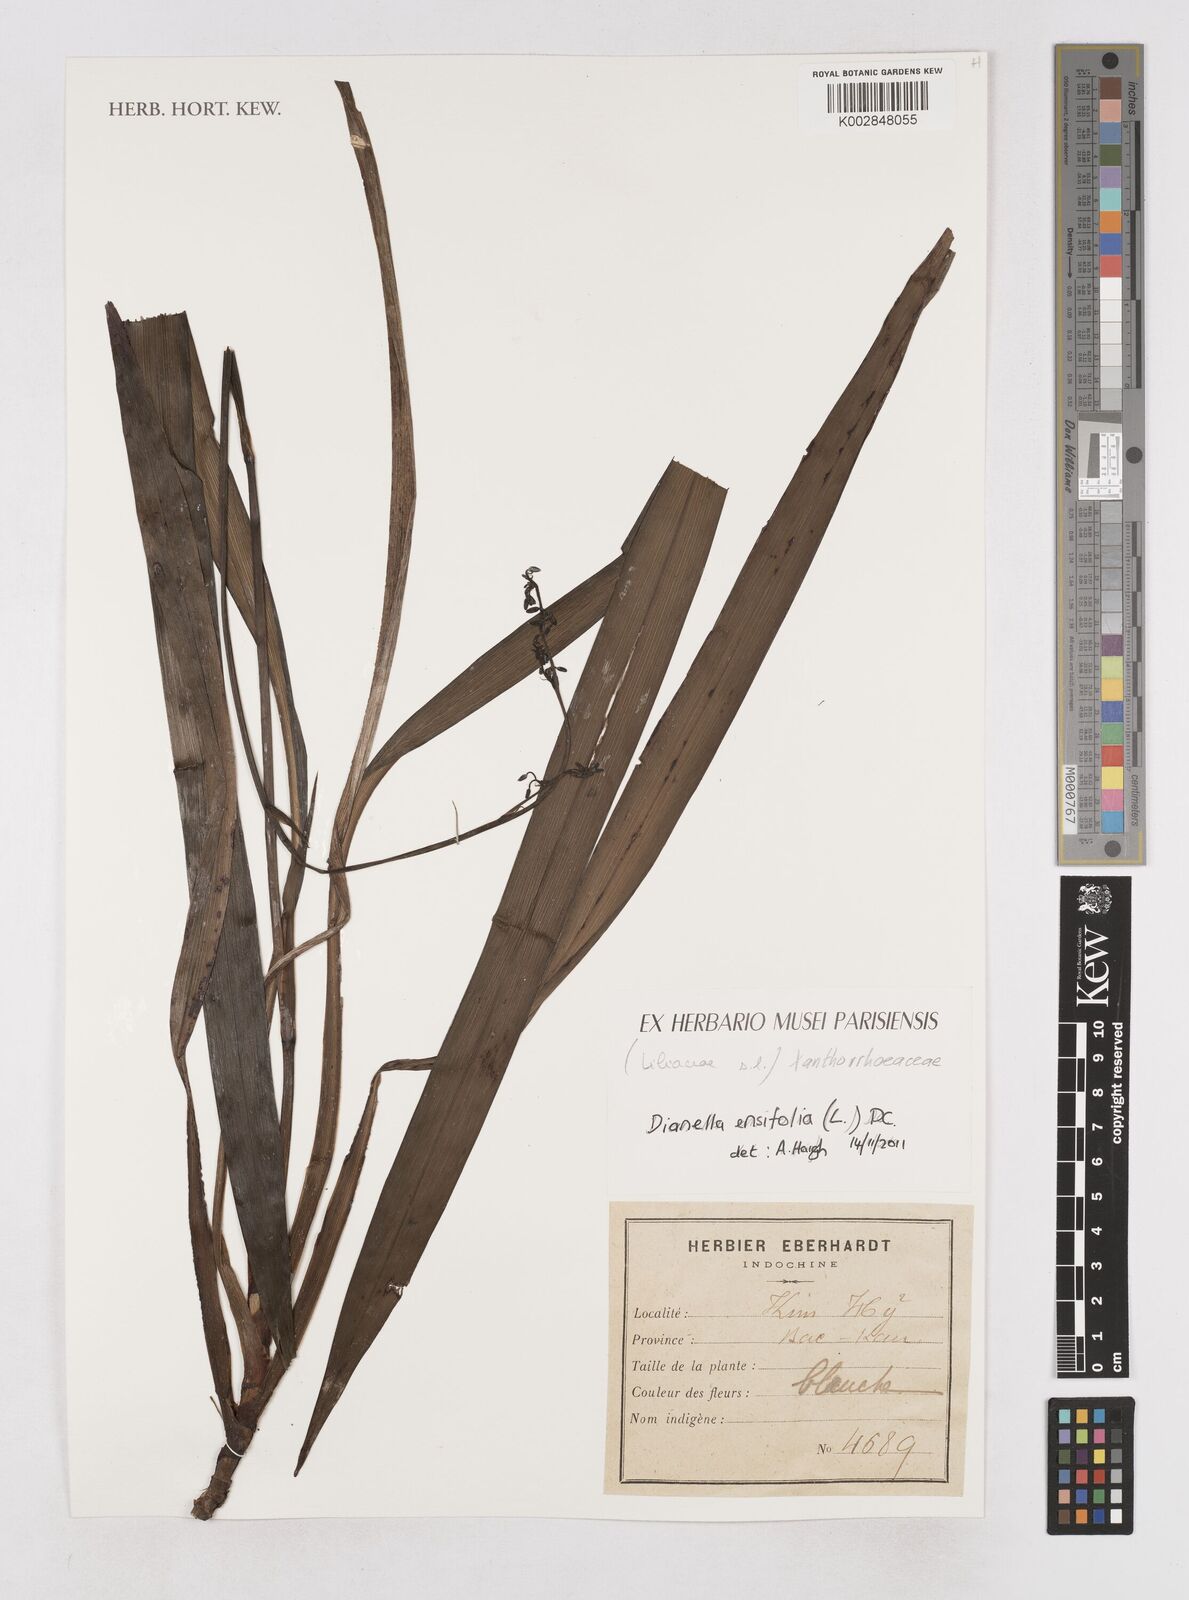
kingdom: Plantae
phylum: Tracheophyta
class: Liliopsida
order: Asparagales
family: Asphodelaceae
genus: Dianella
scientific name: Dianella ensifolia
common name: New zealand lilyplant
